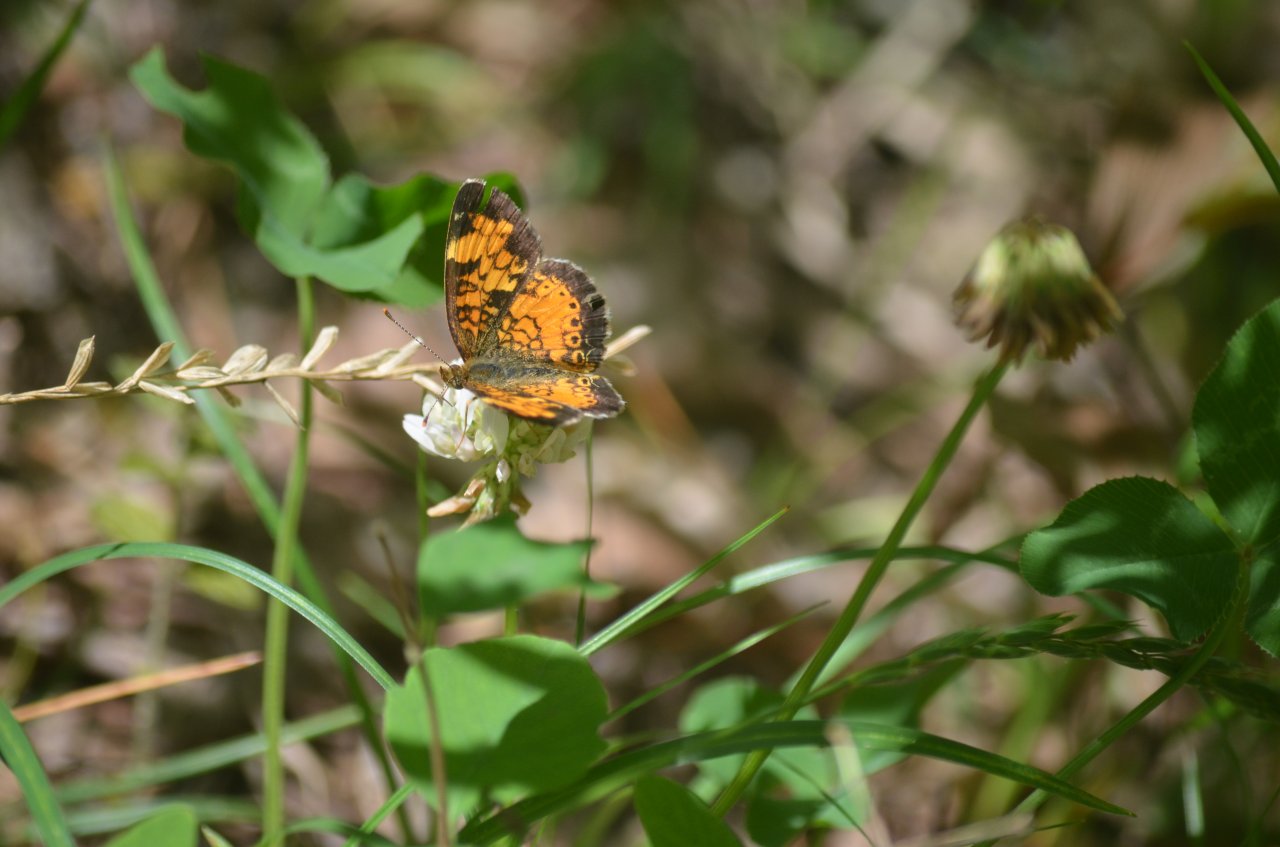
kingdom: Animalia
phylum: Arthropoda
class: Insecta
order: Lepidoptera
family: Nymphalidae
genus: Phyciodes
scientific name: Phyciodes tharos
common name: Northern Crescent
